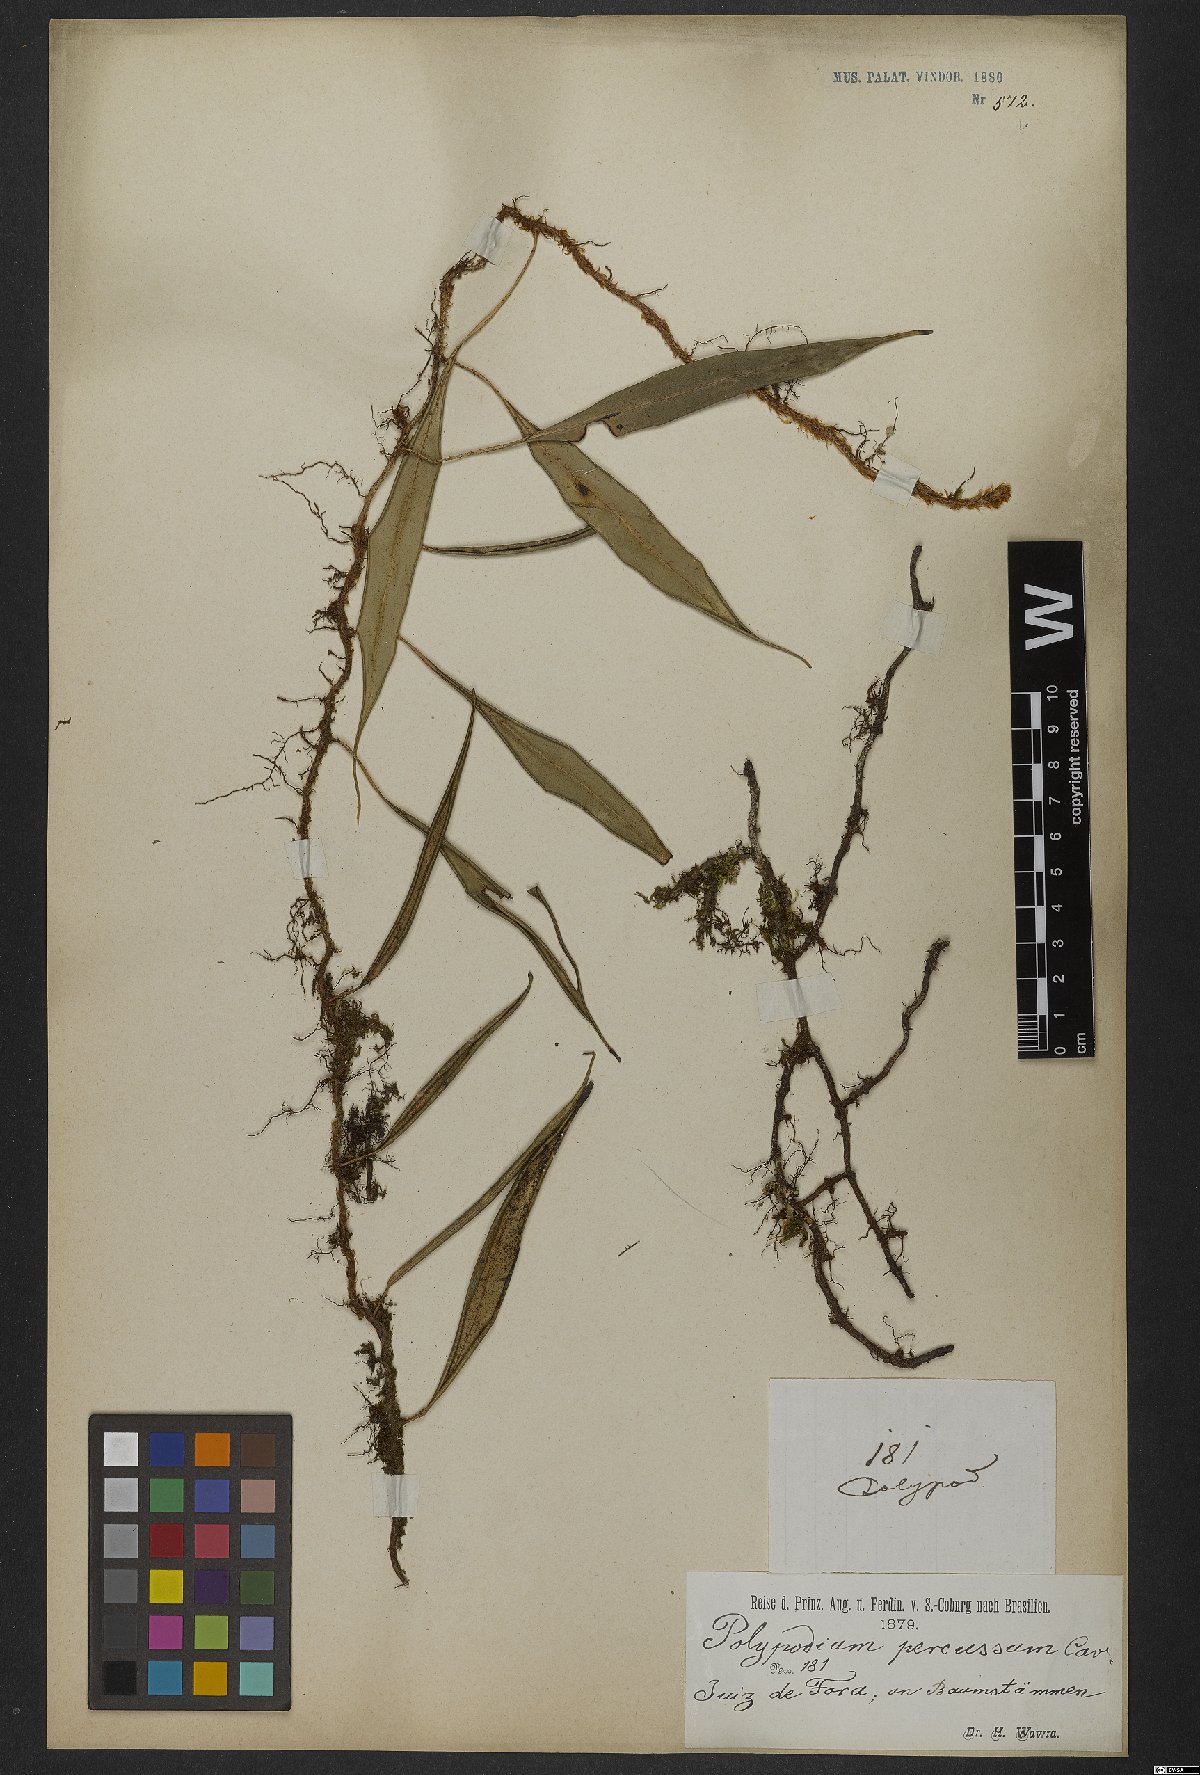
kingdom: Plantae
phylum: Tracheophyta
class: Polypodiopsida
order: Polypodiales
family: Polypodiaceae
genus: Microgramma
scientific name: Microgramma percussa
